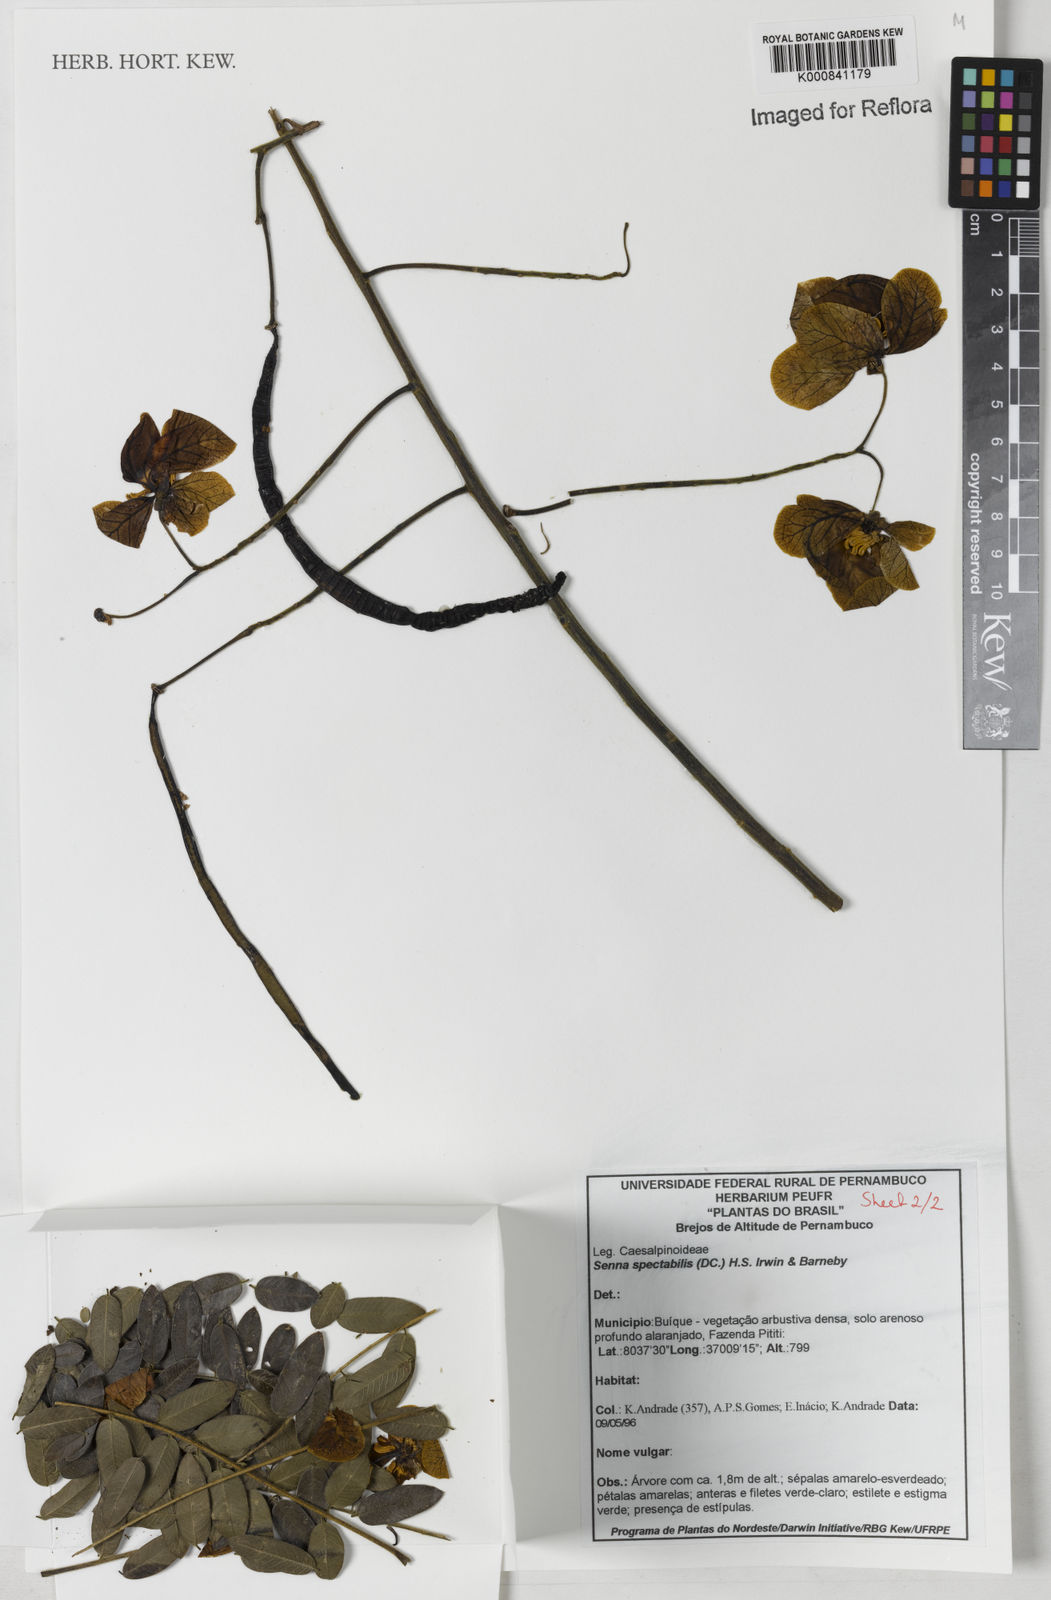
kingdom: Plantae
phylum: Tracheophyta
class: Magnoliopsida
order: Fabales
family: Fabaceae
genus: Senna
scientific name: Senna spectabilis
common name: Casia amarilla
